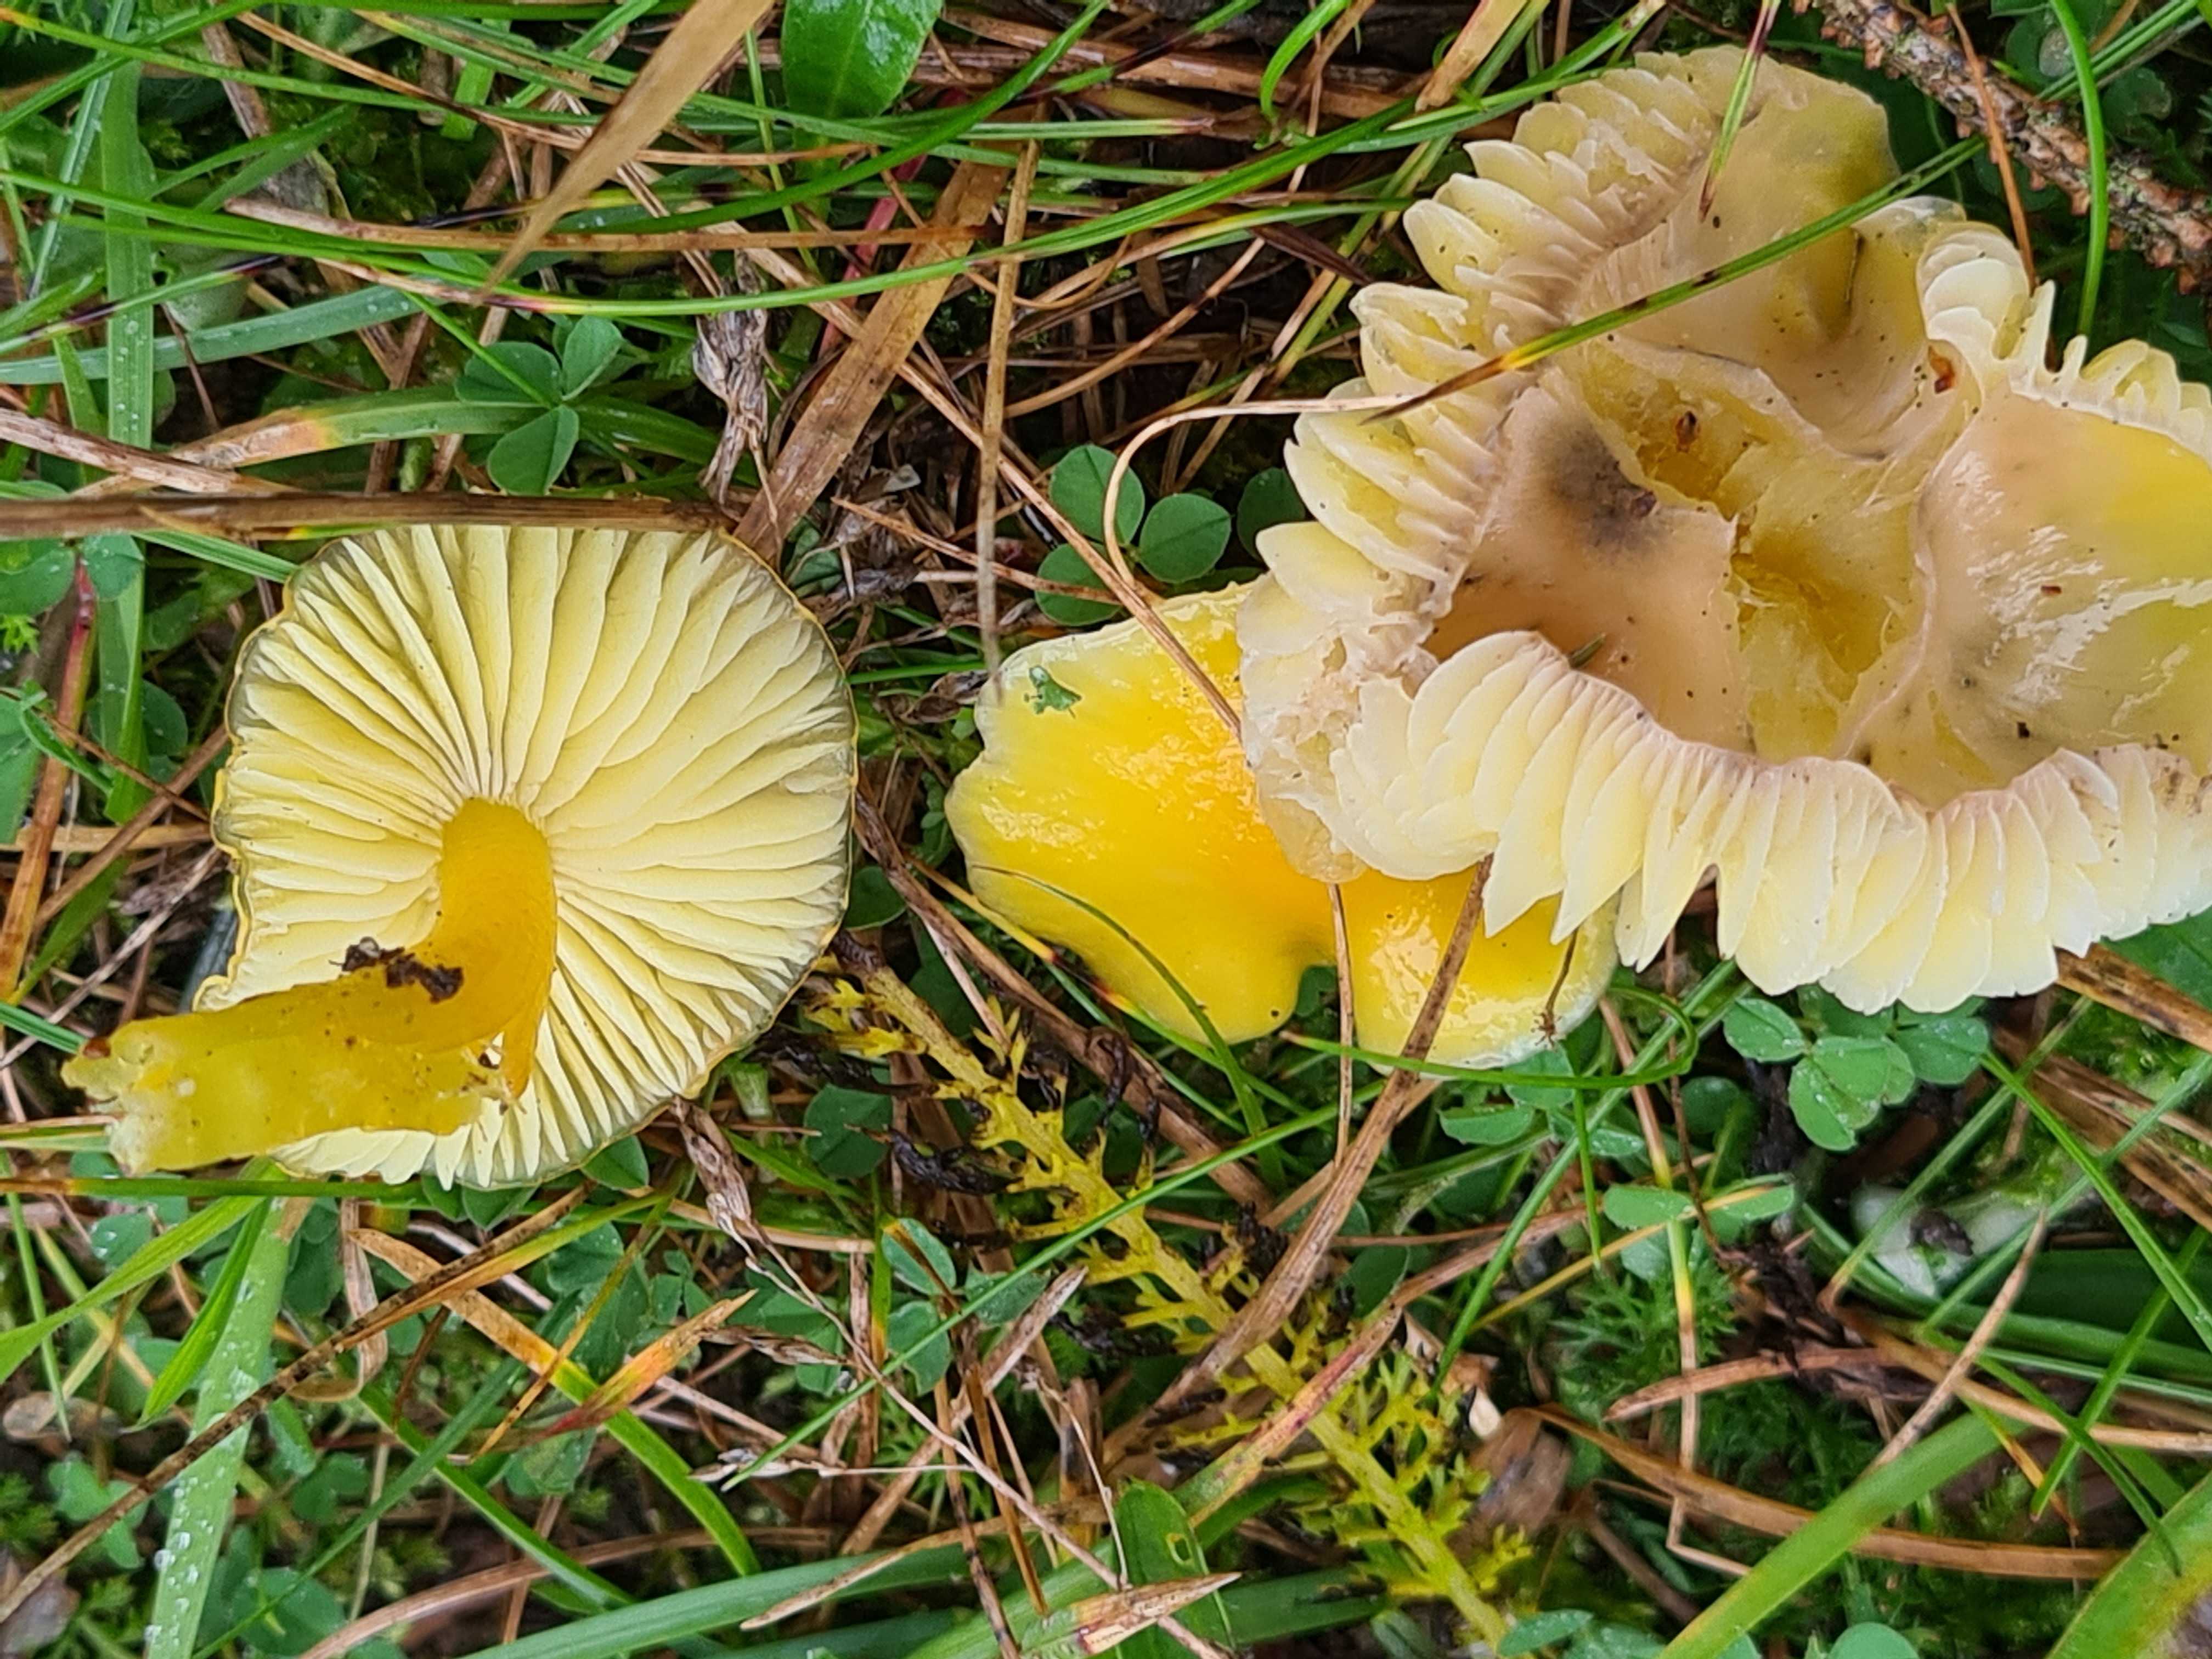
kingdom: Fungi
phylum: Basidiomycota
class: Agaricomycetes
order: Agaricales
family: Hygrophoraceae
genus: Hygrocybe
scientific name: Hygrocybe chlorophana
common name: gul vokshat
